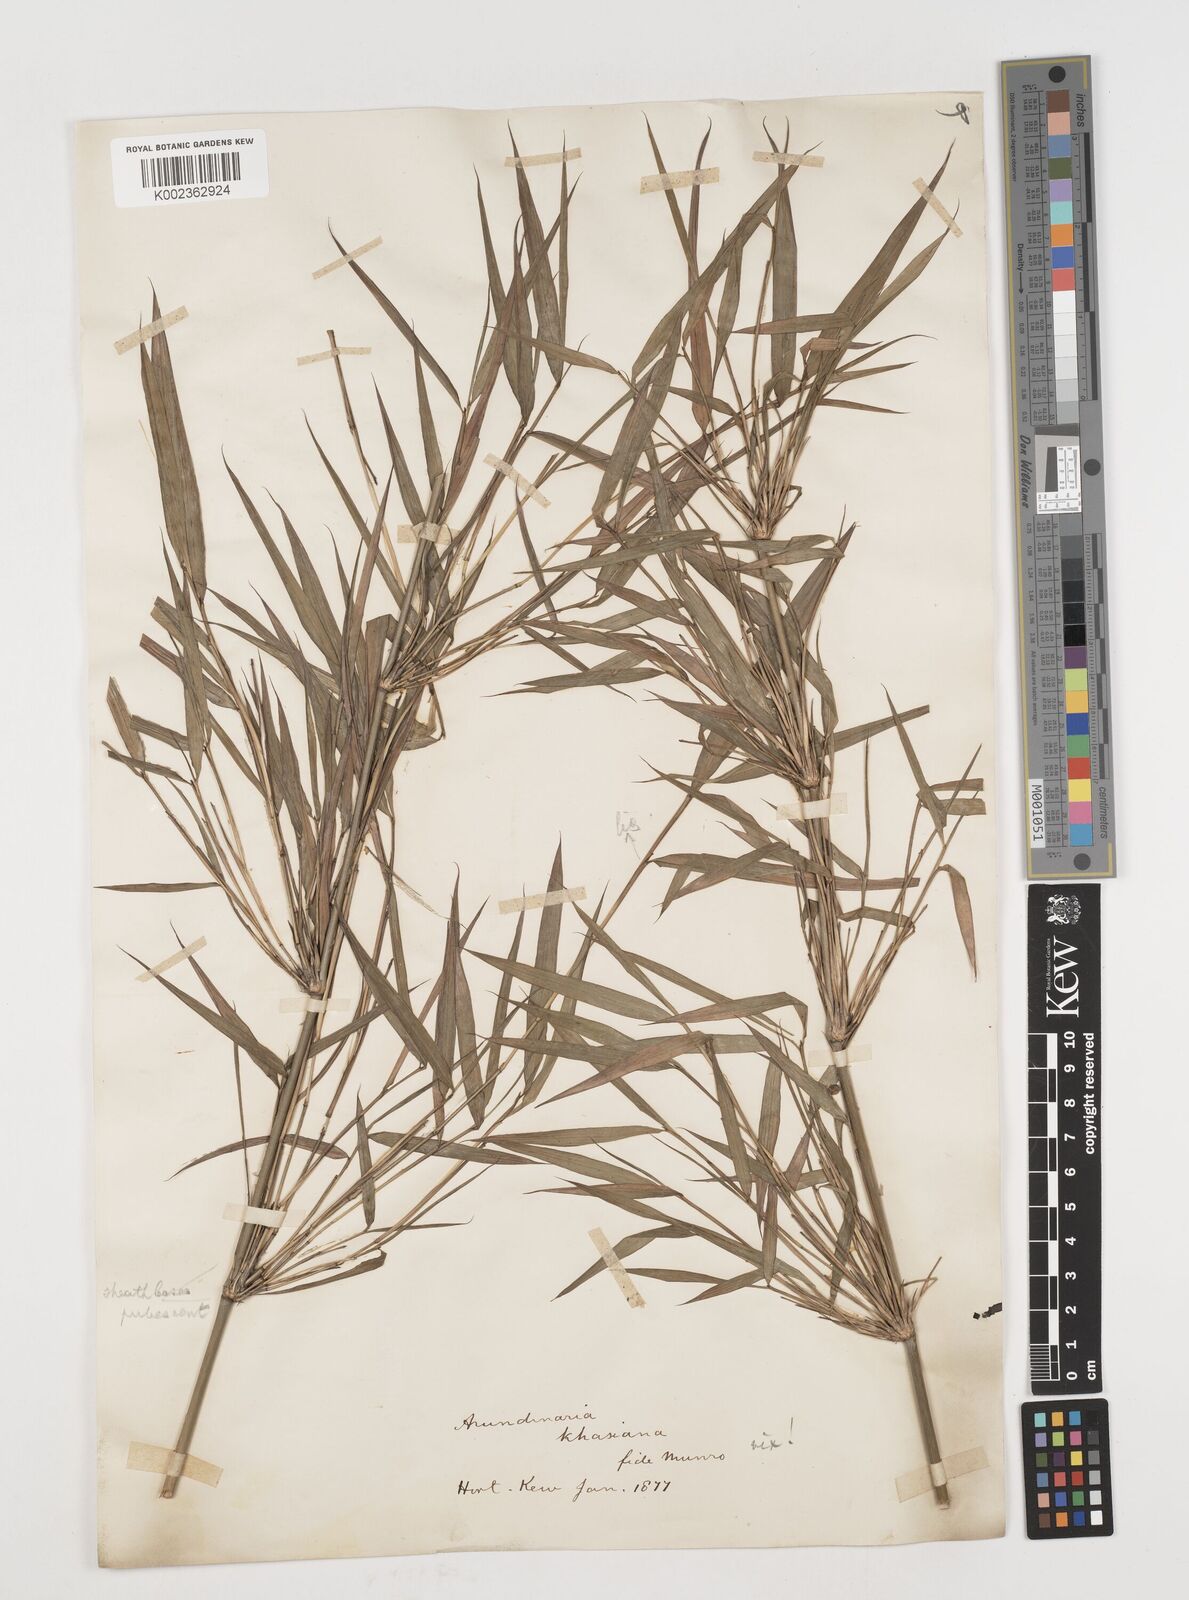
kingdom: Plantae
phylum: Tracheophyta
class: Liliopsida
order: Poales
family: Poaceae
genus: Drepanostachyum
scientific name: Drepanostachyum khasianum
